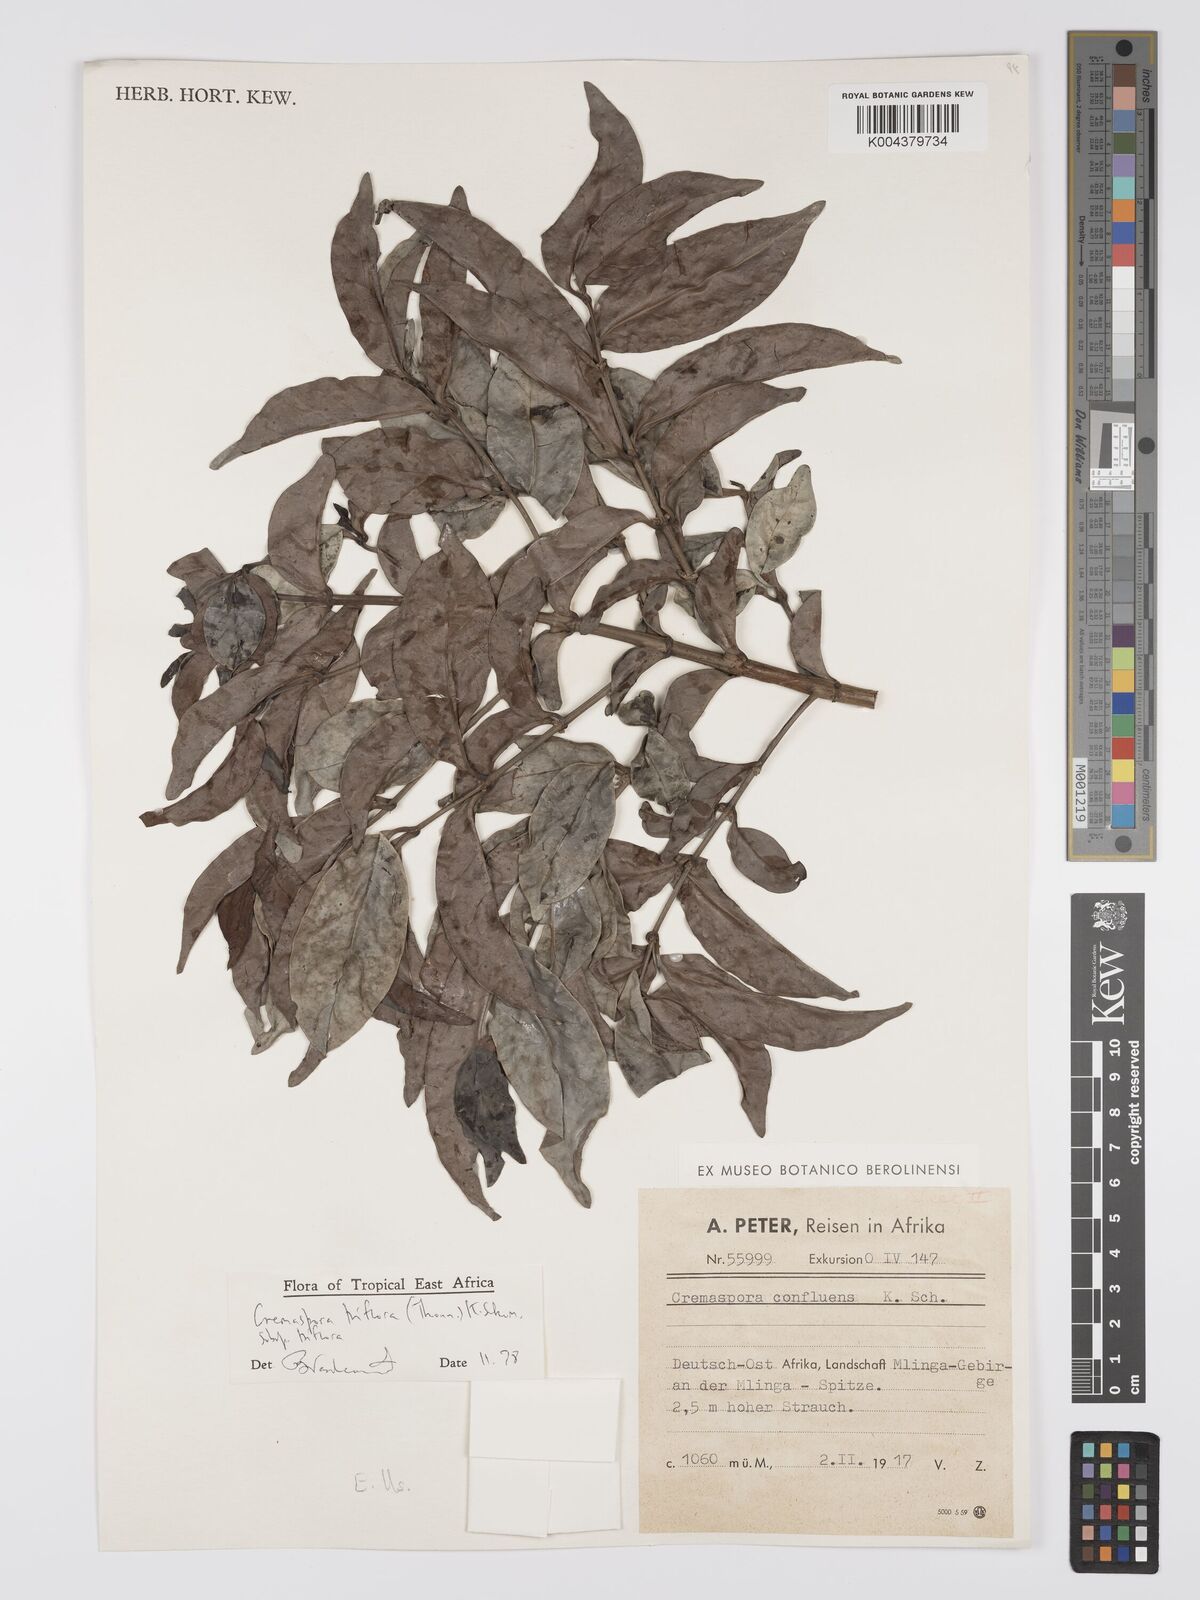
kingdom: Plantae
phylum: Tracheophyta
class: Magnoliopsida
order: Gentianales
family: Rubiaceae
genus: Cremaspora
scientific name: Cremaspora triflora
